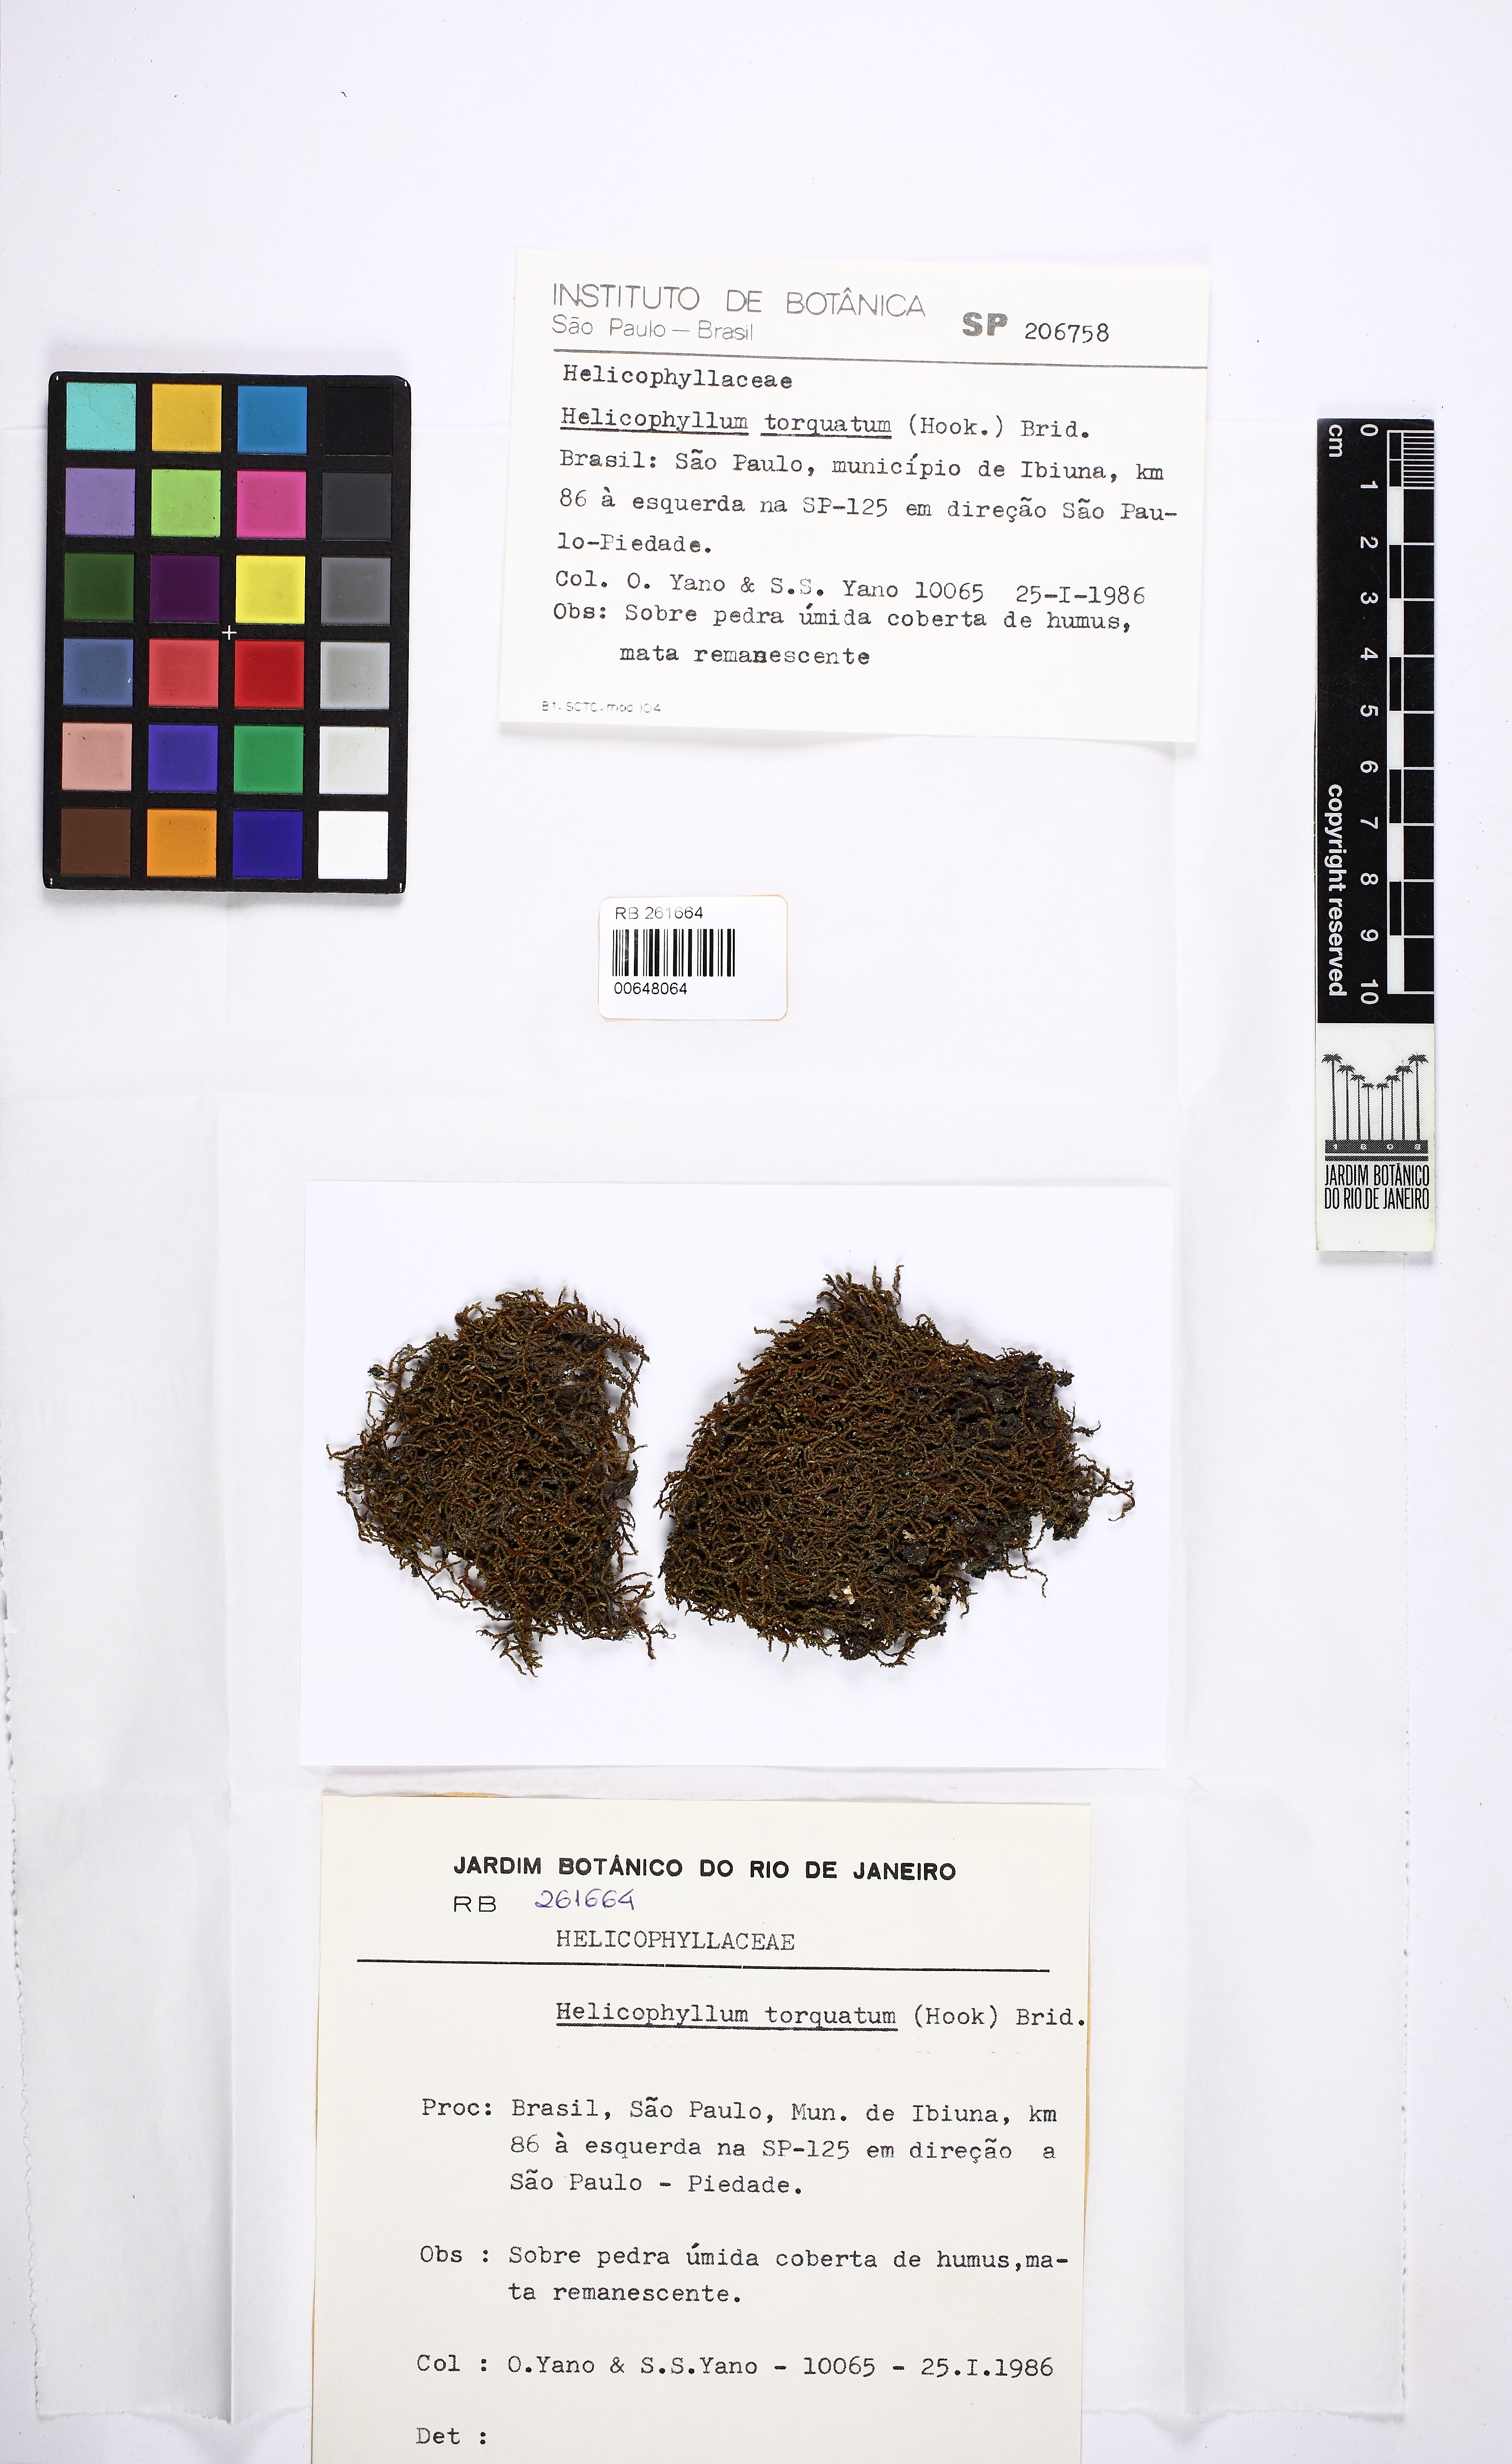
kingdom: Plantae
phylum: Bryophyta
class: Bryopsida
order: Helicophyllales
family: Helicophyllaceae
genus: Helicophyllum
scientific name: Helicophyllum torquatum
